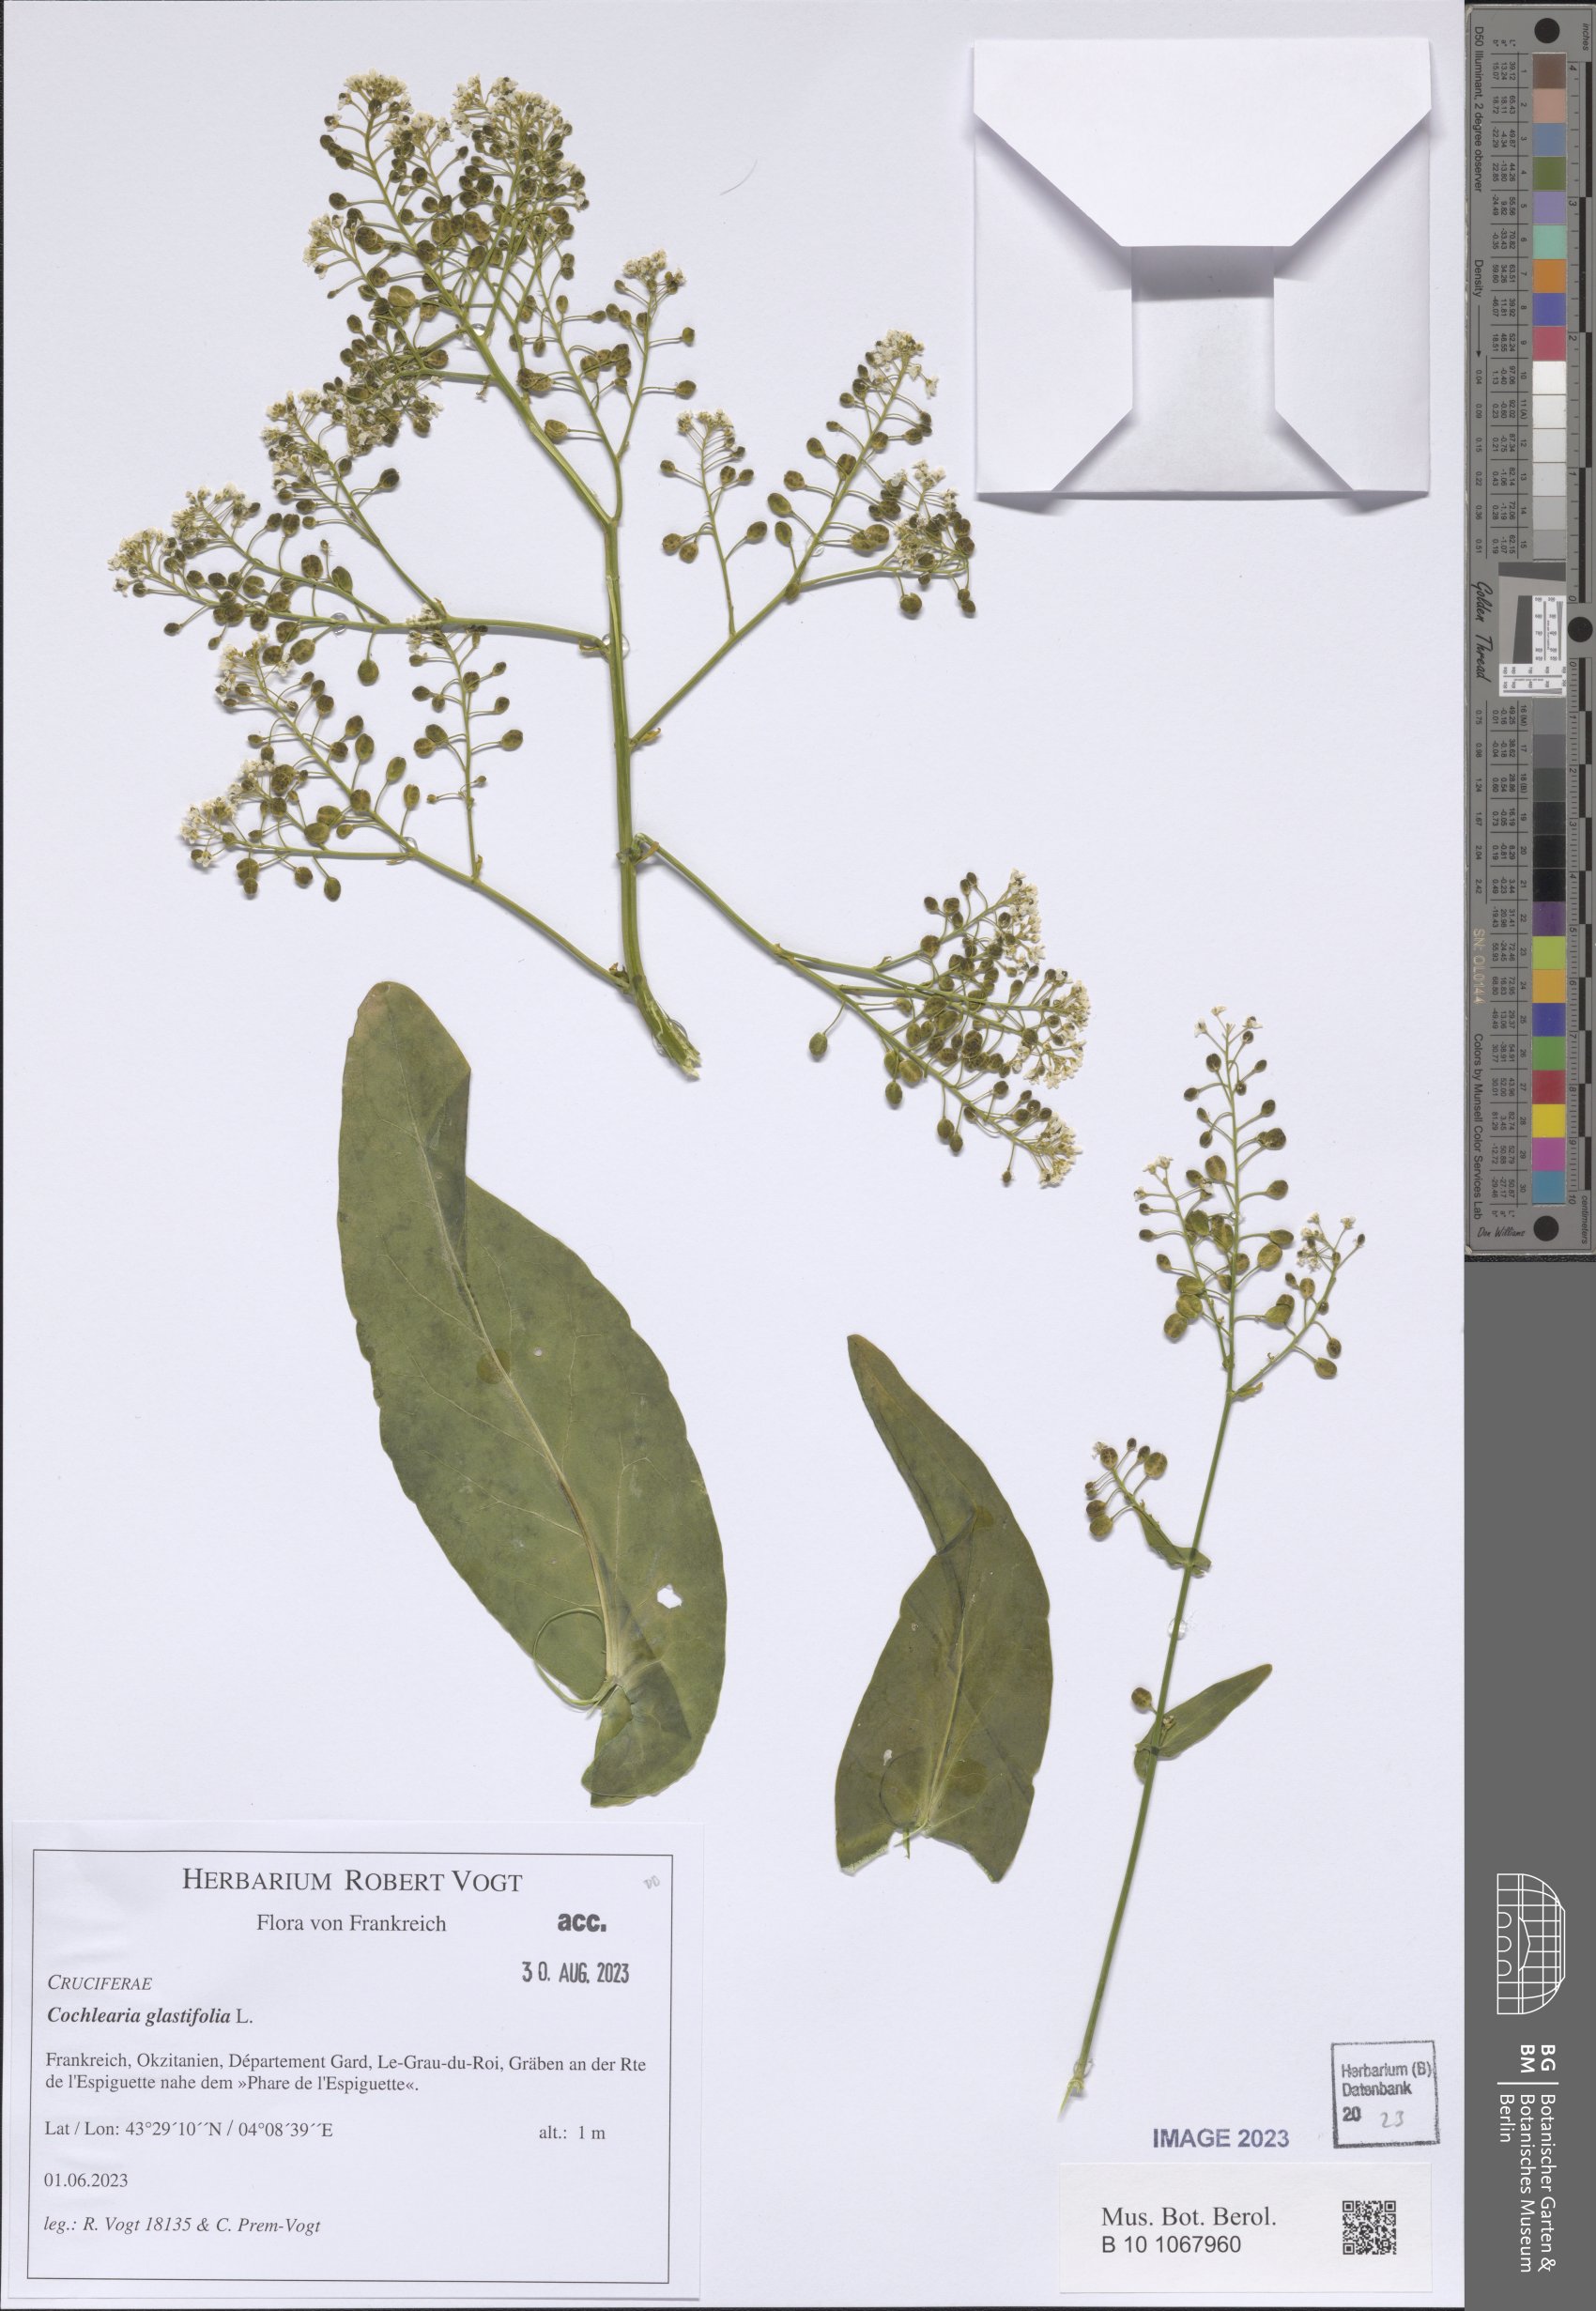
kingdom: Plantae
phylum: Tracheophyta
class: Magnoliopsida
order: Brassicales
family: Brassicaceae
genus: Ionopsidium
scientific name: Ionopsidium glastifolium
